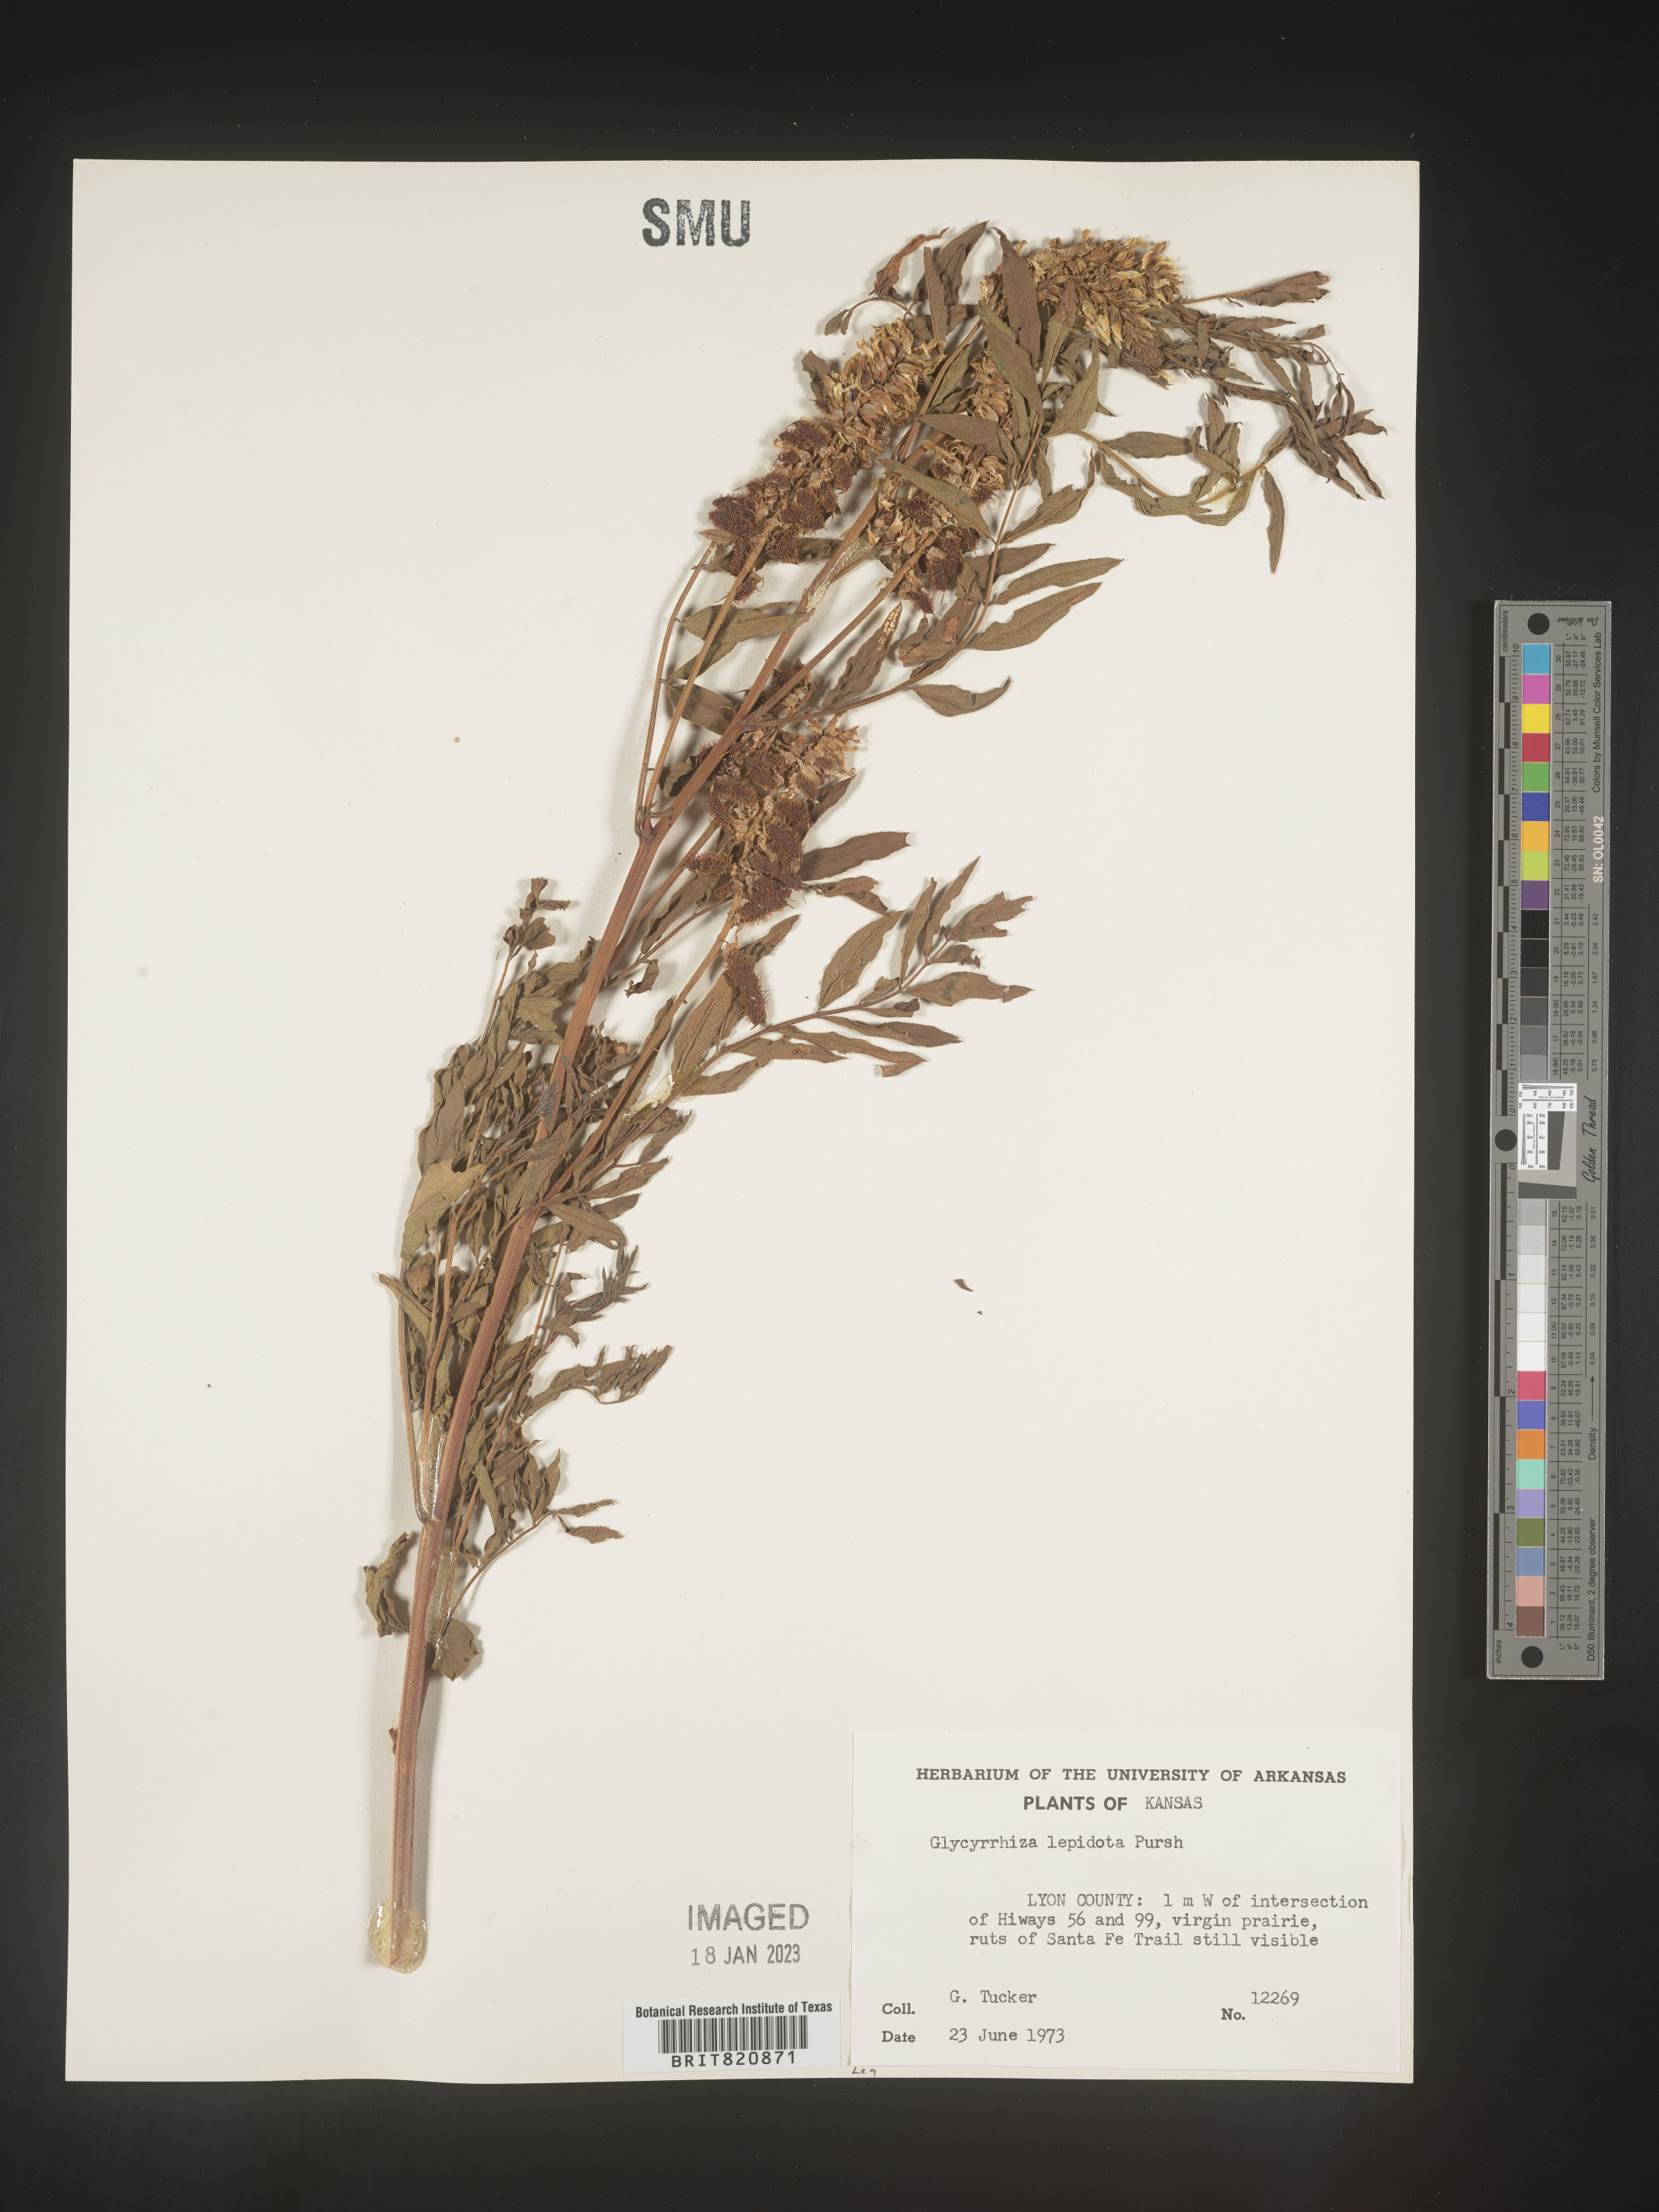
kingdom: Plantae
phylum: Tracheophyta
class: Magnoliopsida
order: Fabales
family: Fabaceae
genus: Glycyrrhiza
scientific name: Glycyrrhiza lepidota
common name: American liquorice
